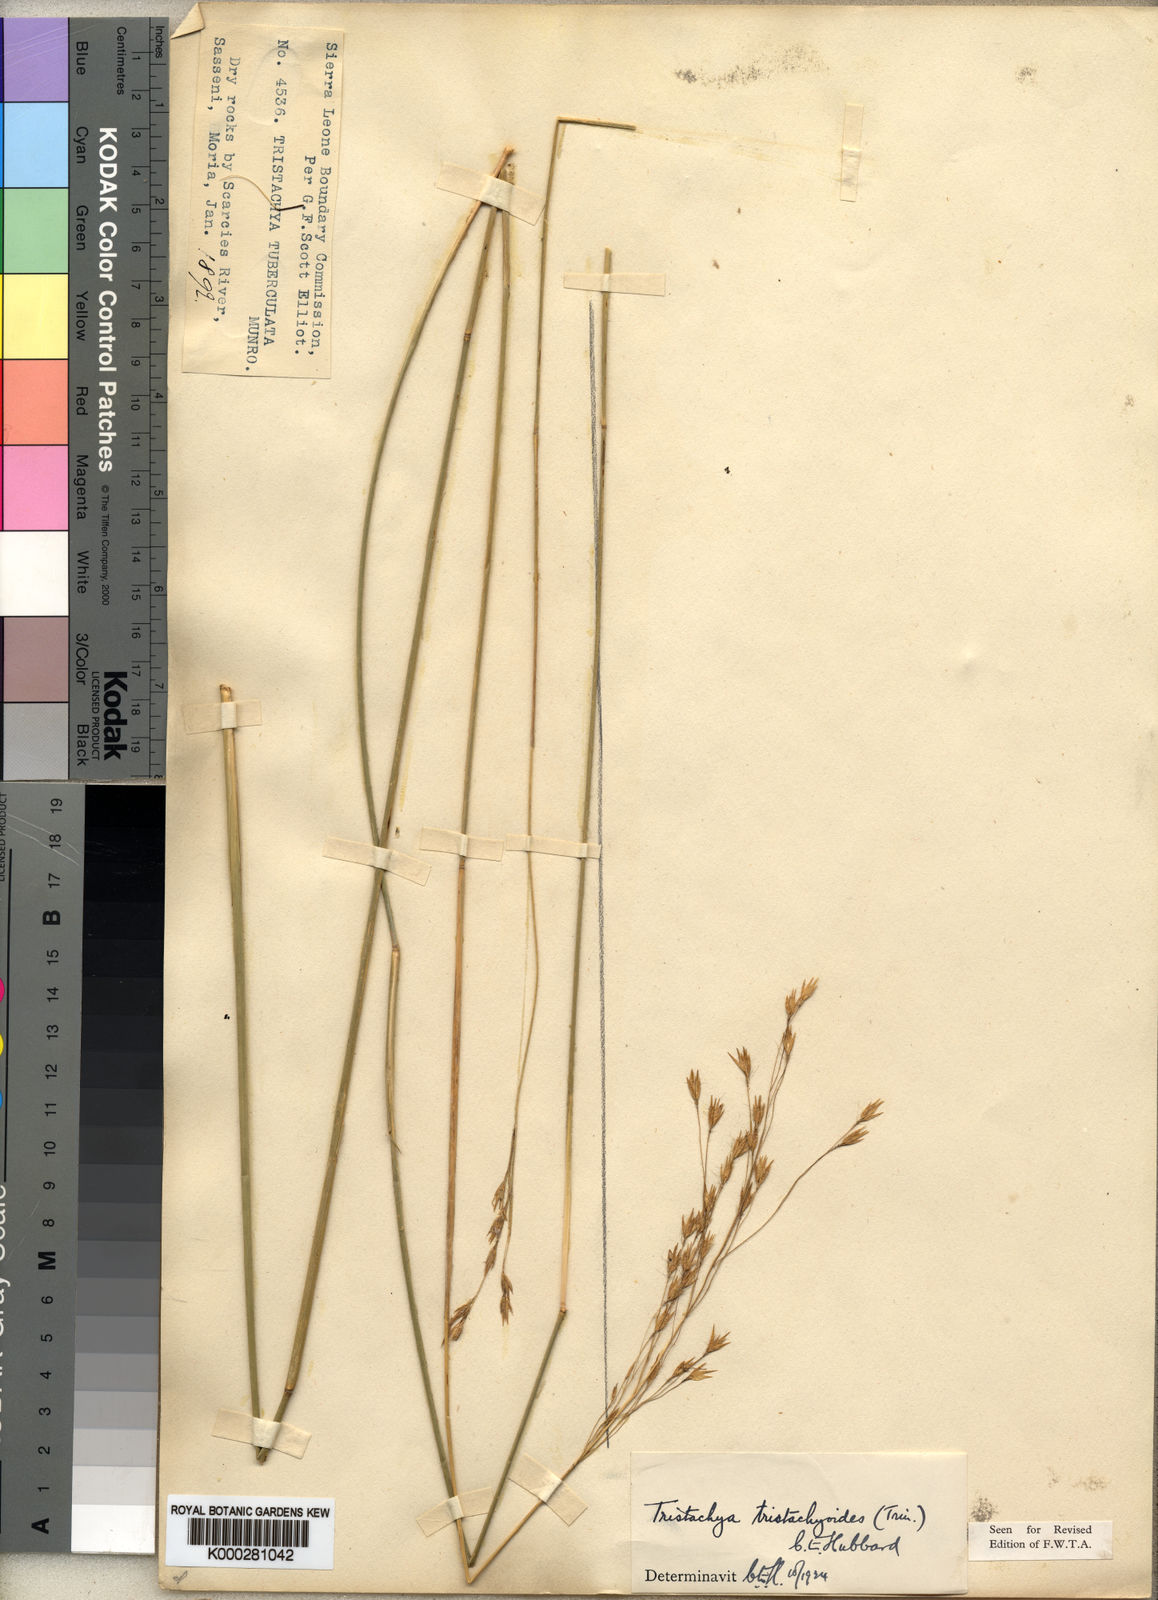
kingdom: Plantae
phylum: Tracheophyta
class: Liliopsida
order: Poales
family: Poaceae
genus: Dilophotriche
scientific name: Dilophotriche
